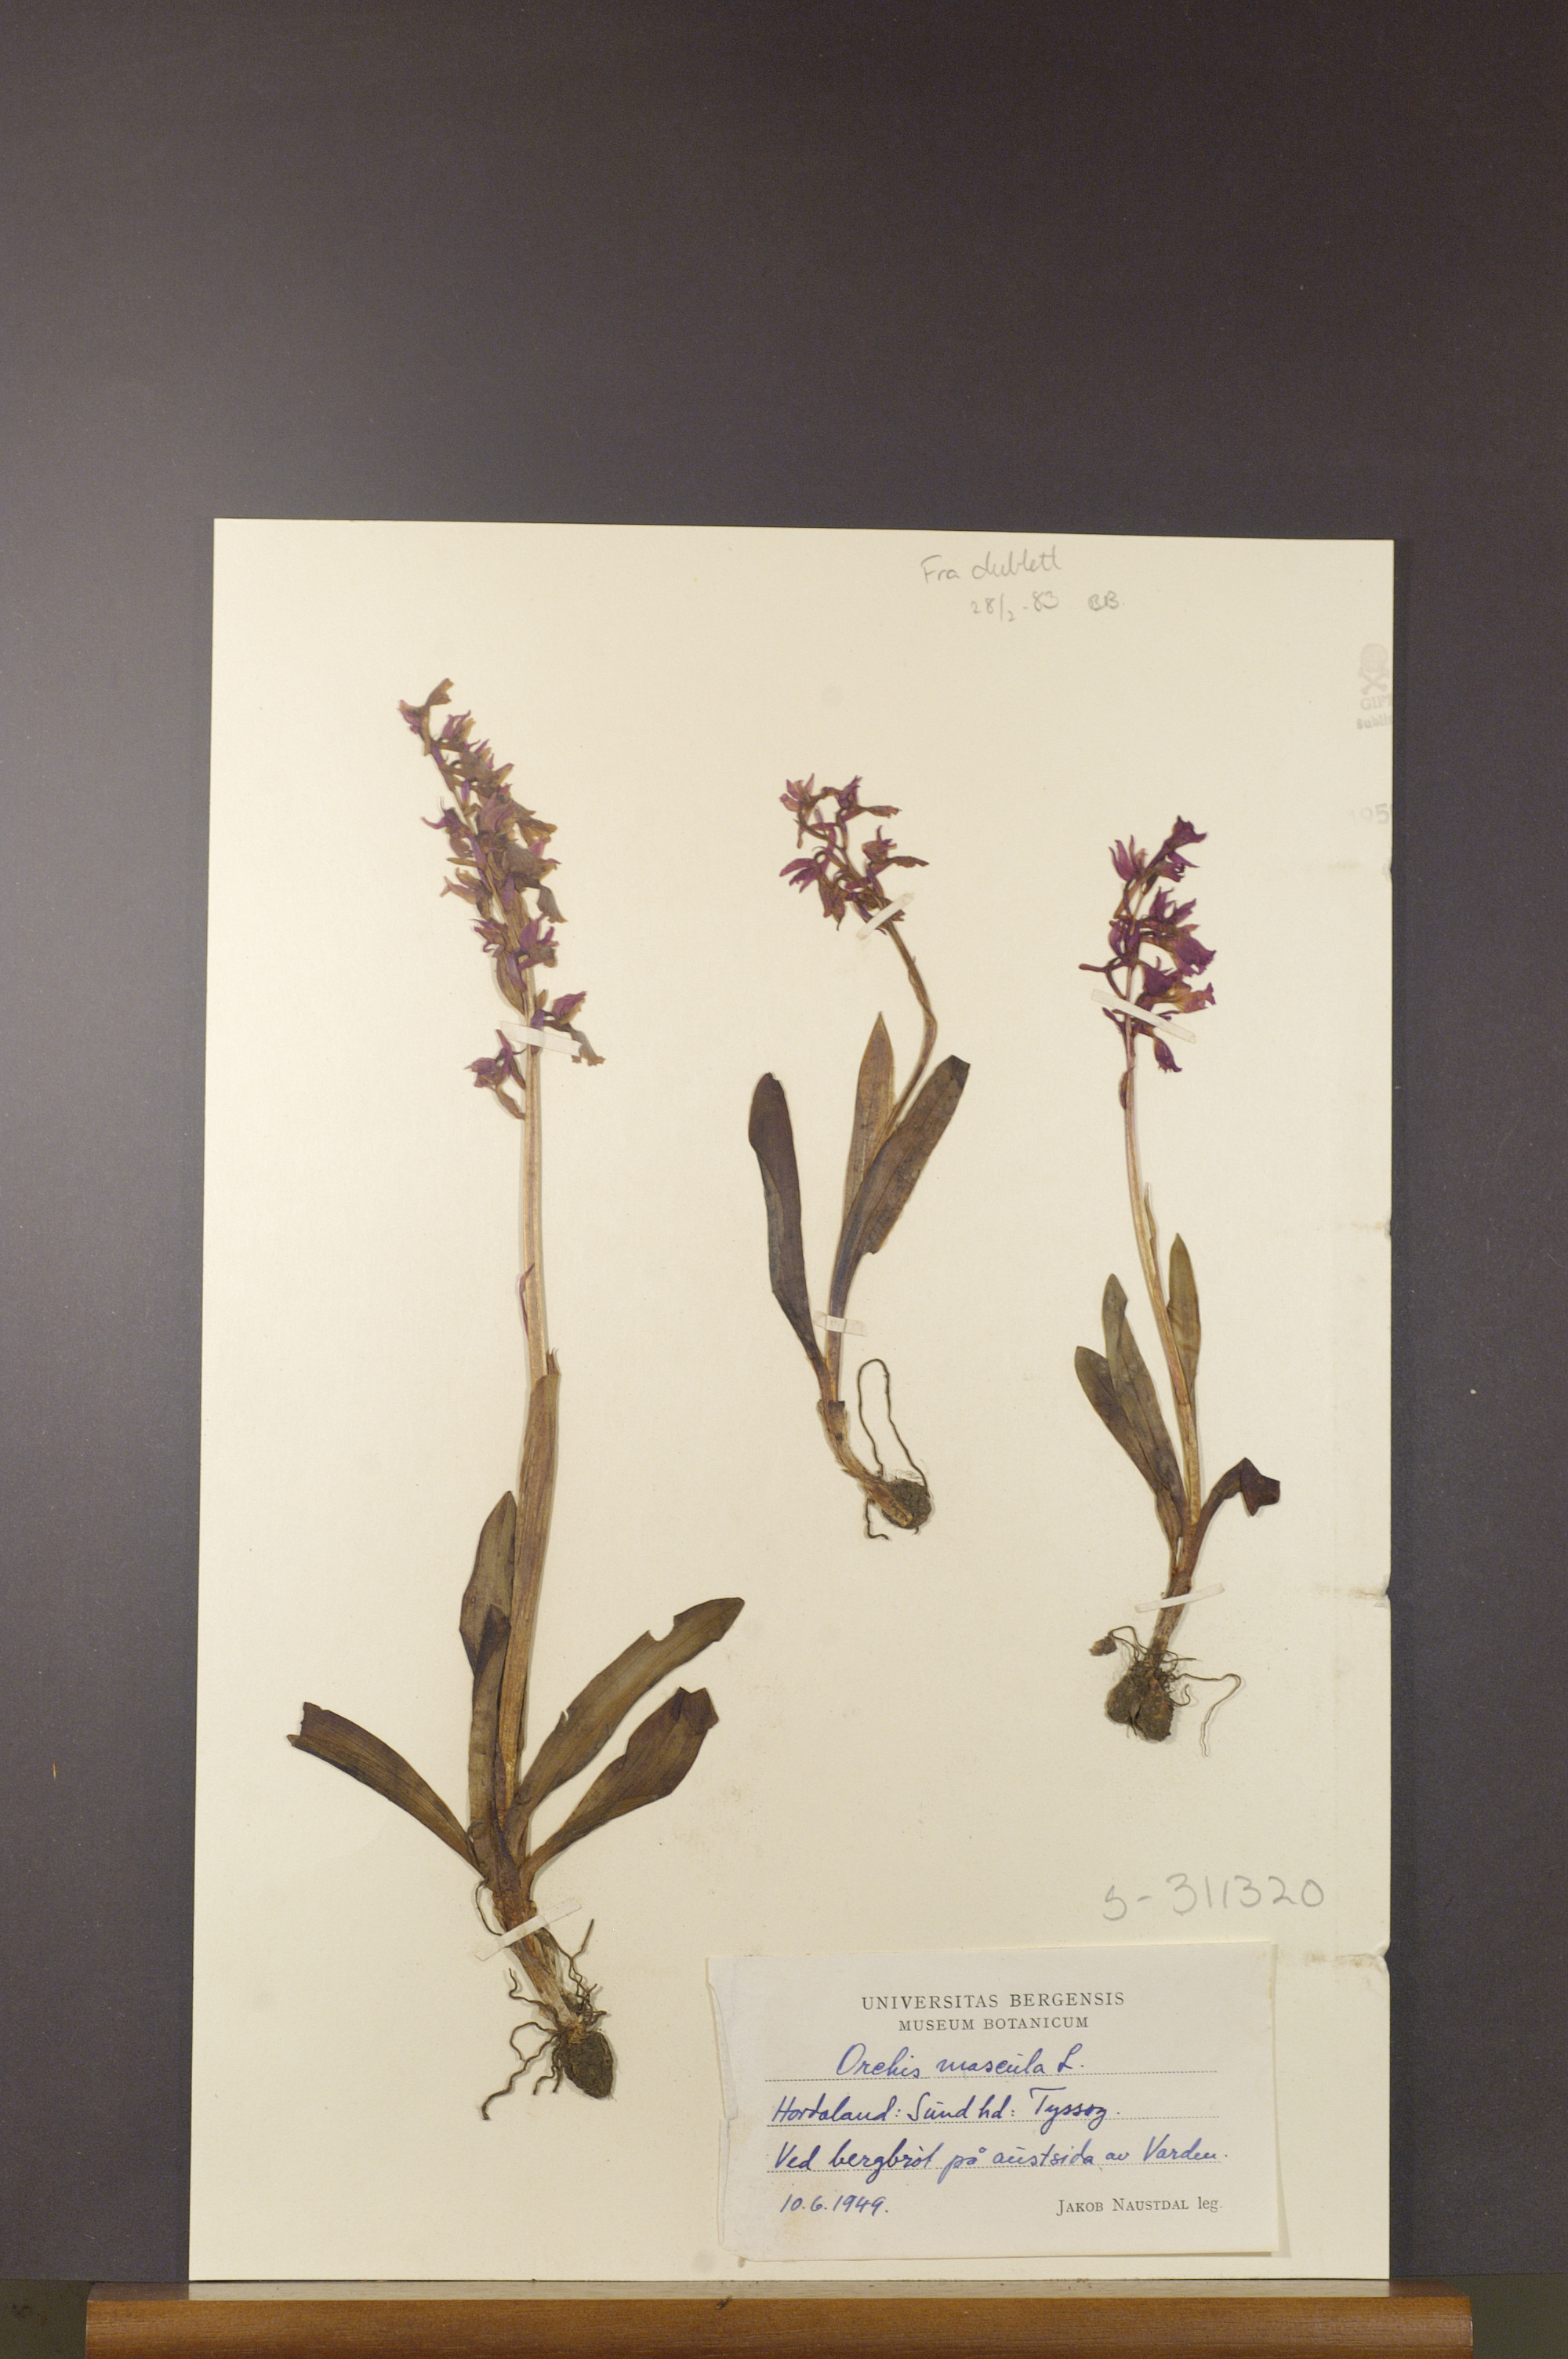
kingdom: Plantae
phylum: Tracheophyta
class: Liliopsida
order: Asparagales
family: Orchidaceae
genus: Orchis
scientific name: Orchis mascula
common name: Early-purple orchid
